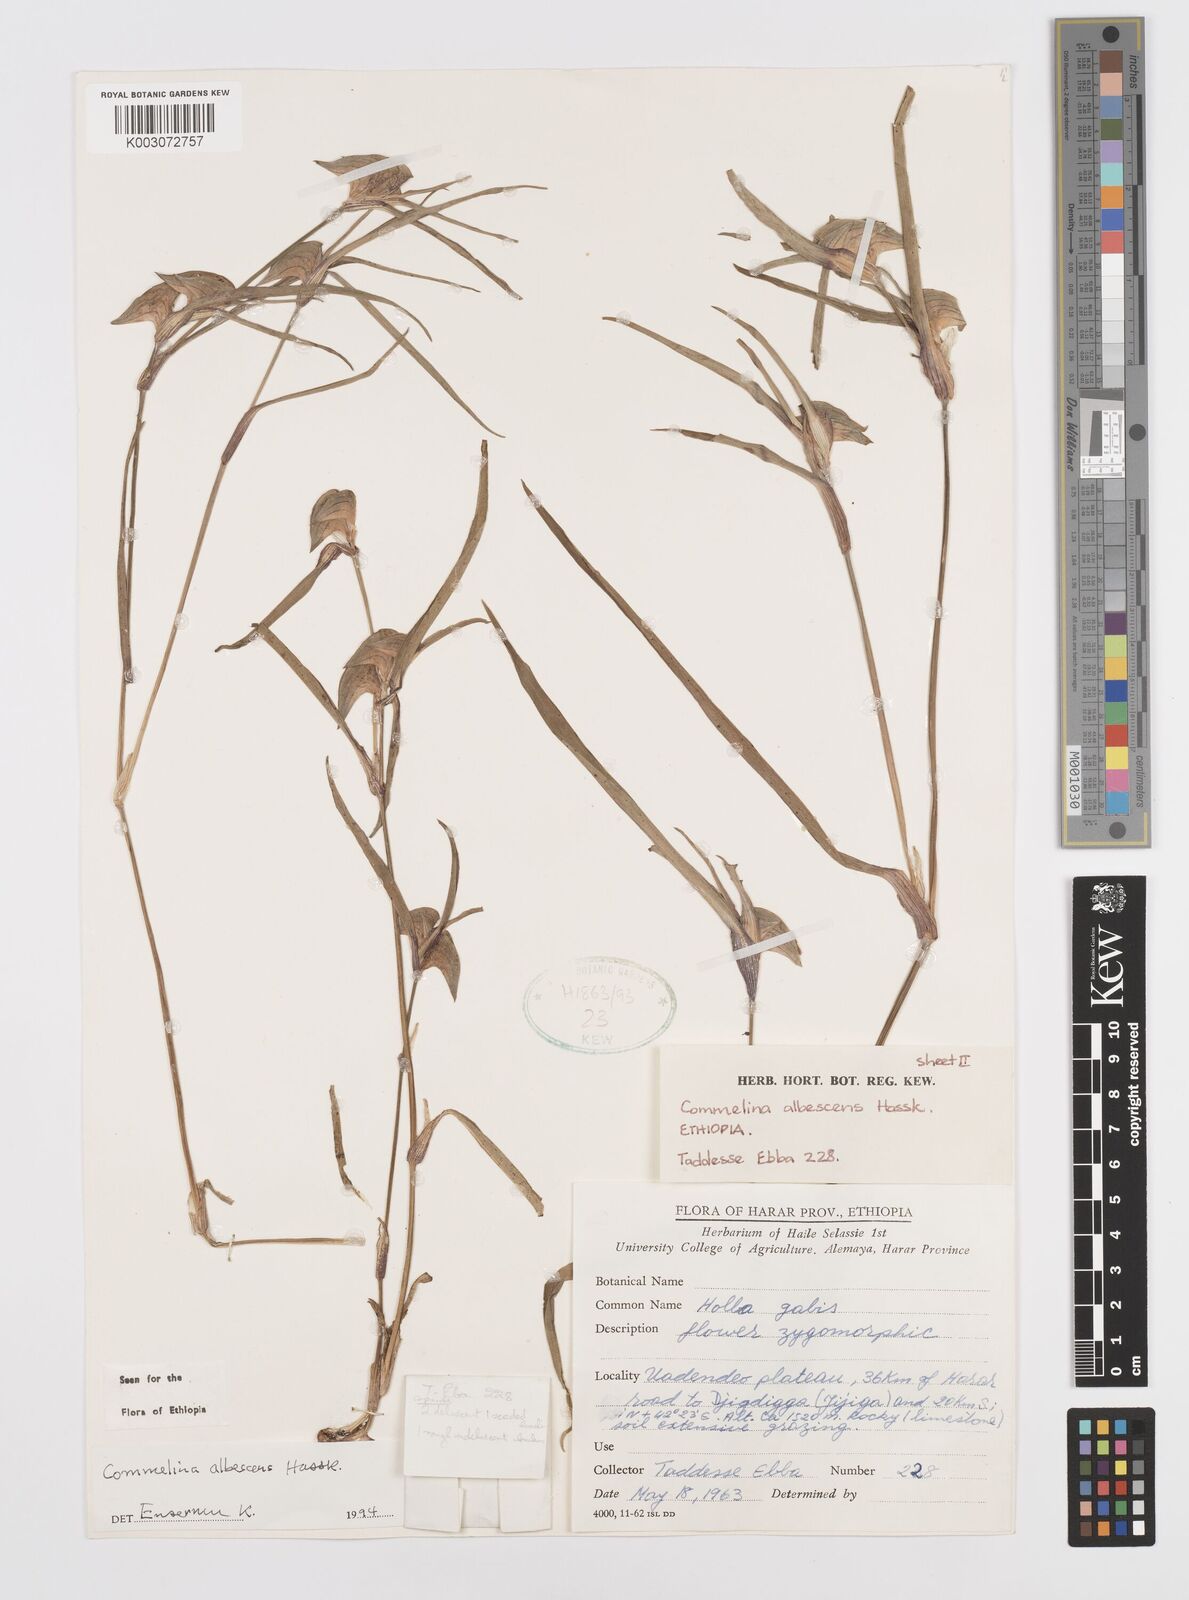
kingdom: Plantae
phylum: Tracheophyta
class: Liliopsida
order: Commelinales
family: Commelinaceae
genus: Commelina
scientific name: Commelina albescens
